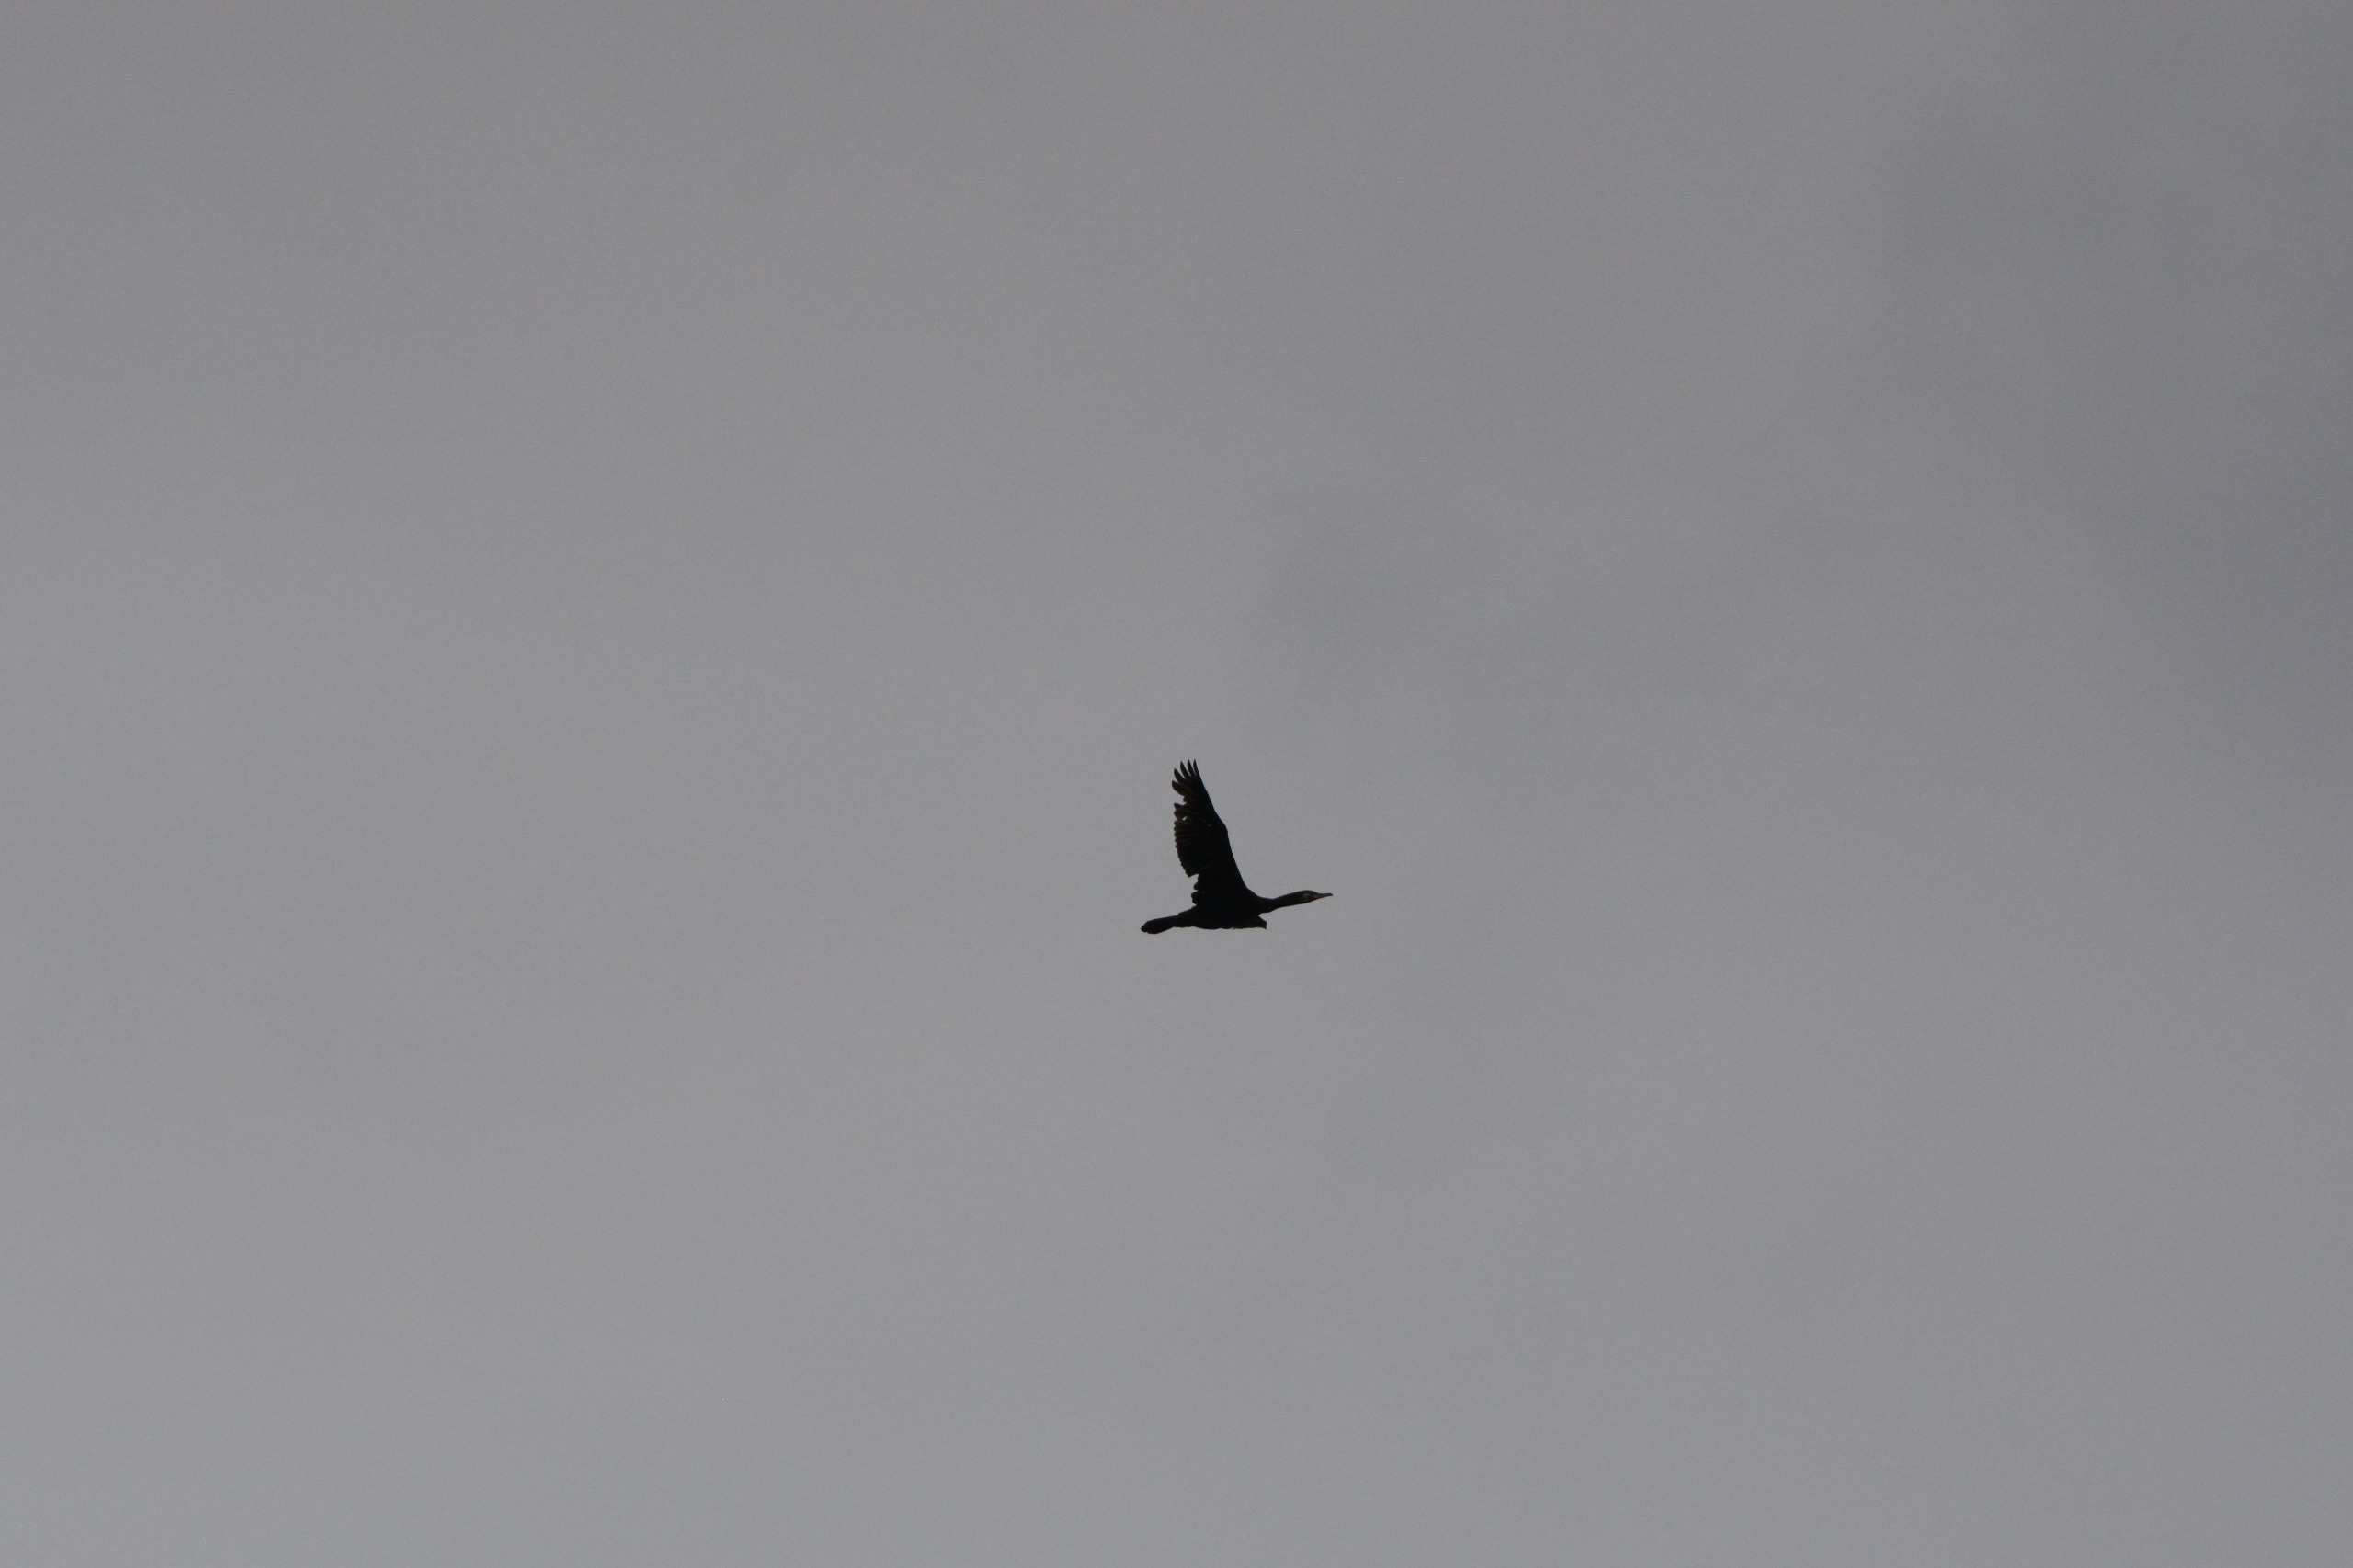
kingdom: Animalia
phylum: Chordata
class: Aves
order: Suliformes
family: Phalacrocoracidae
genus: Phalacrocorax
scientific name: Phalacrocorax carbo
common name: Skarv
